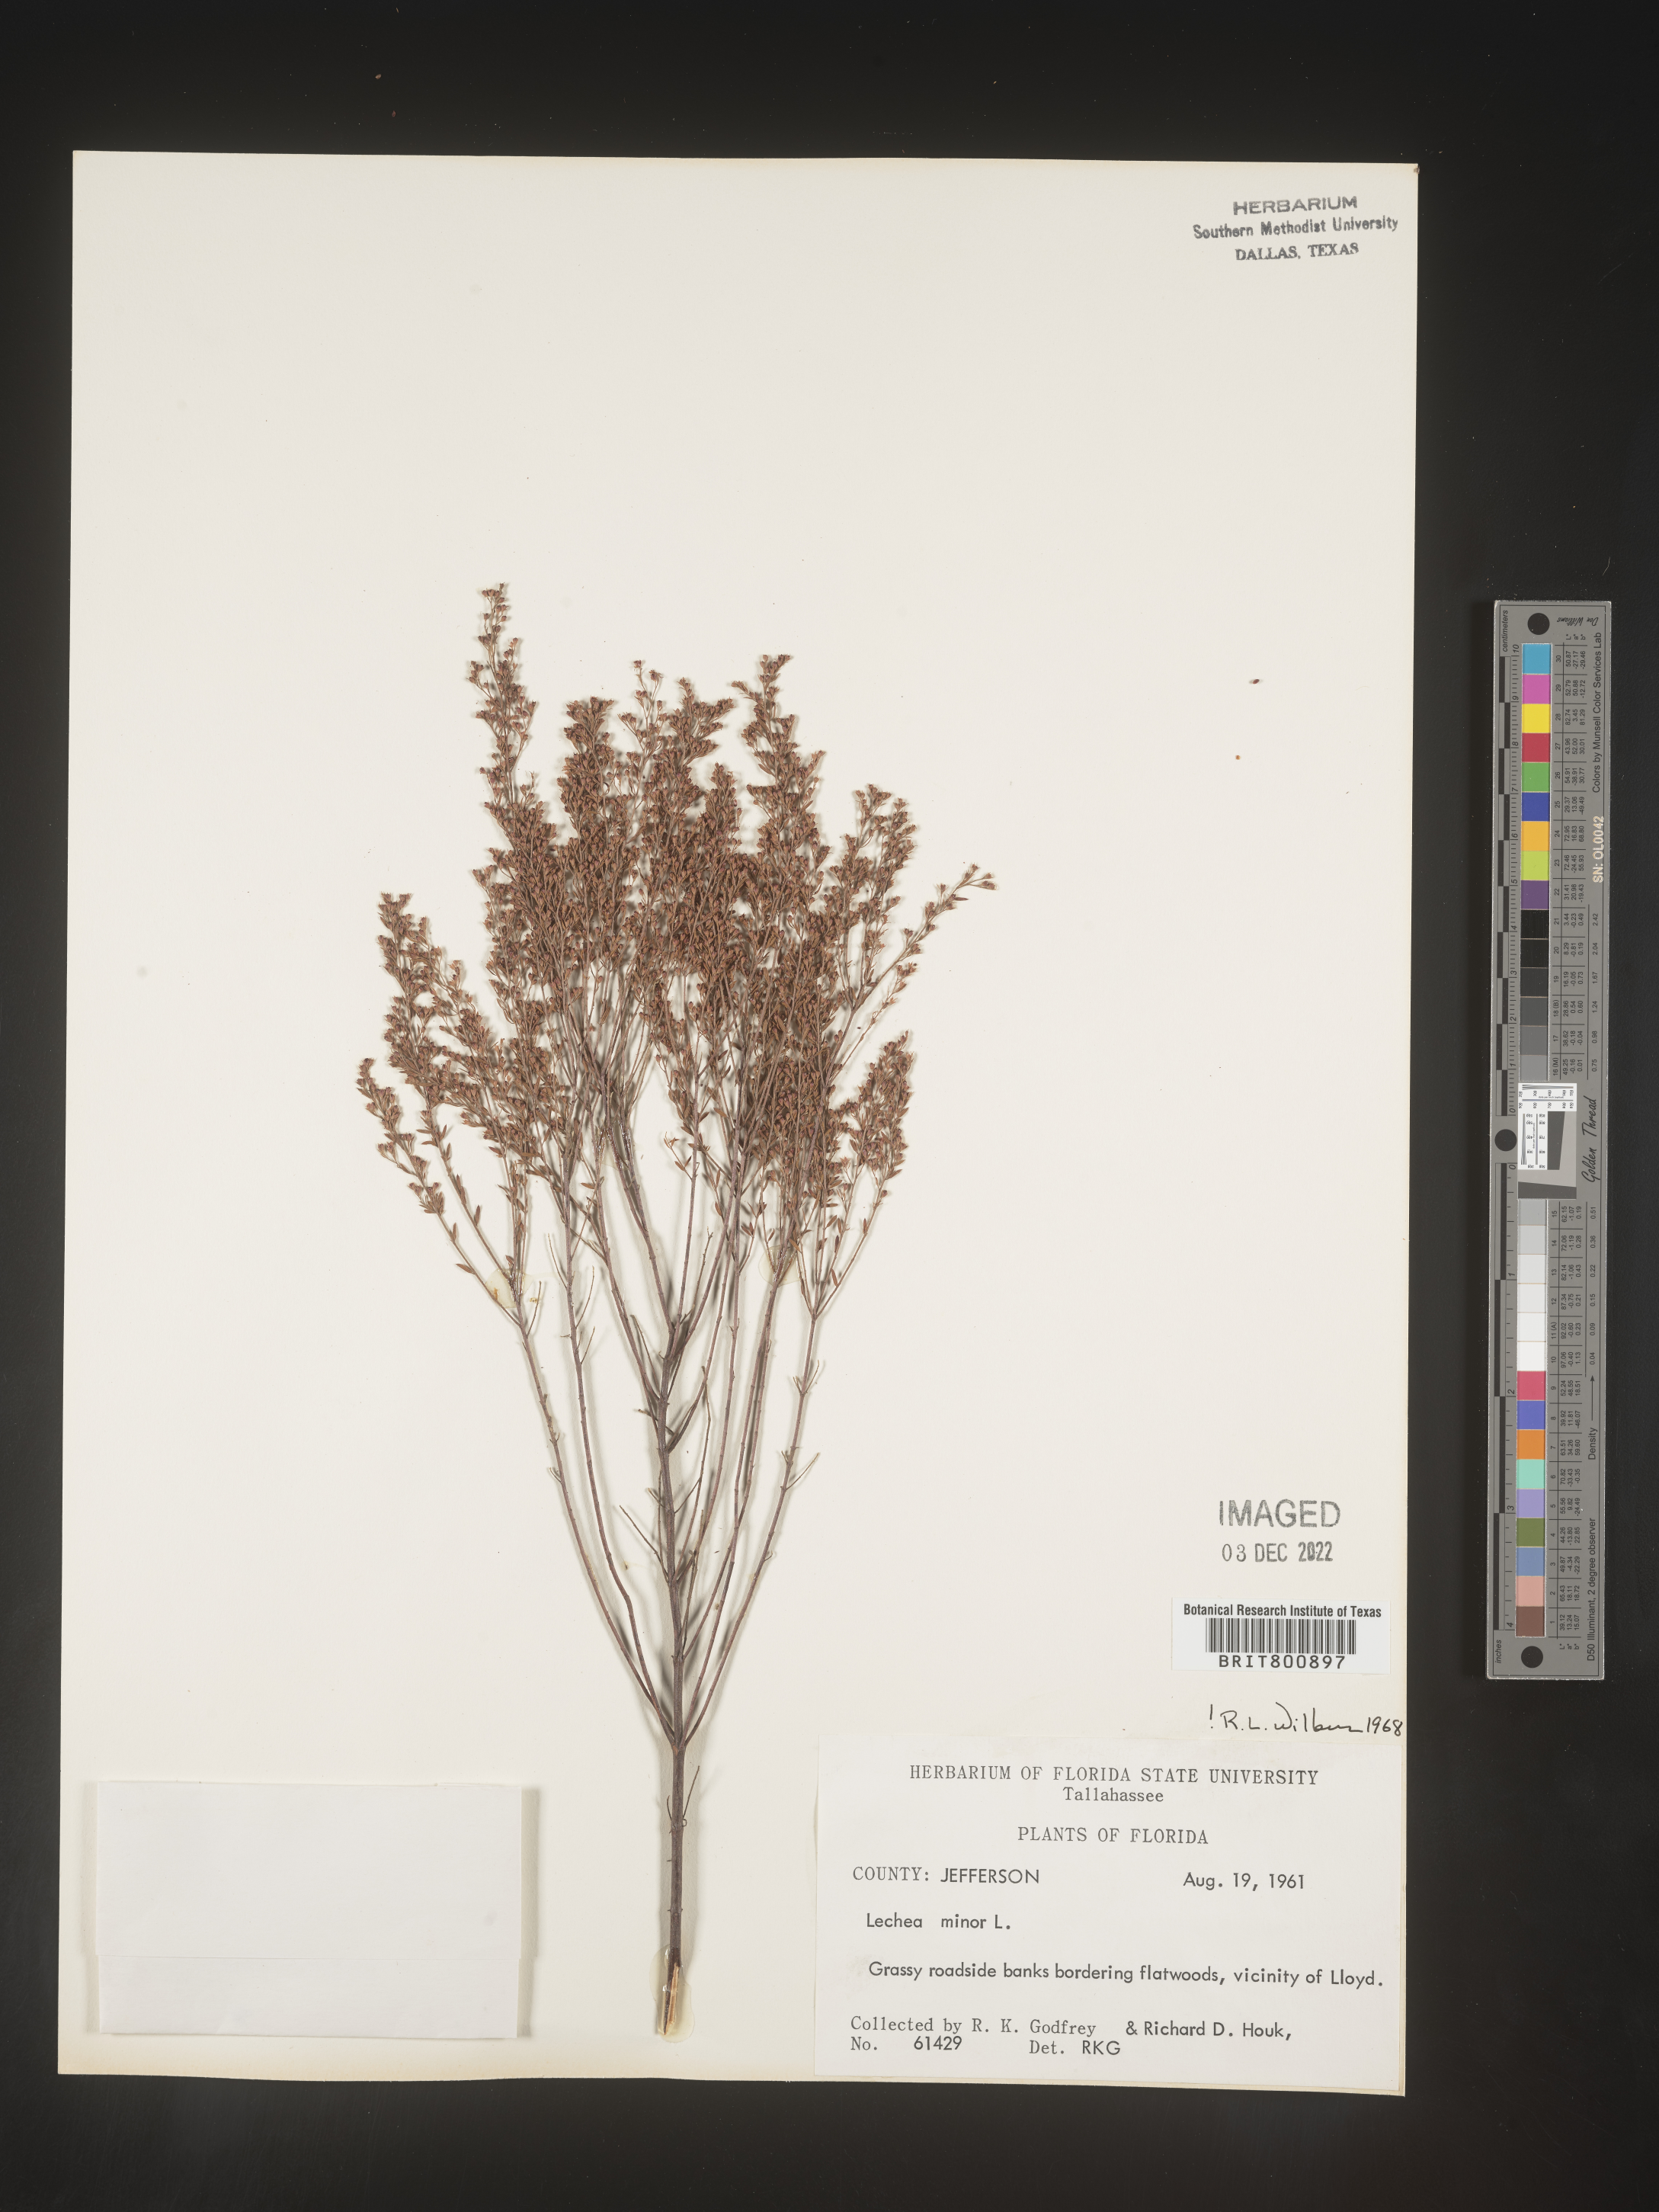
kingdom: Plantae
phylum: Tracheophyta
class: Magnoliopsida
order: Malvales
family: Cistaceae
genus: Lechea
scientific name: Lechea minor
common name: Thyme-leaf pinweed
